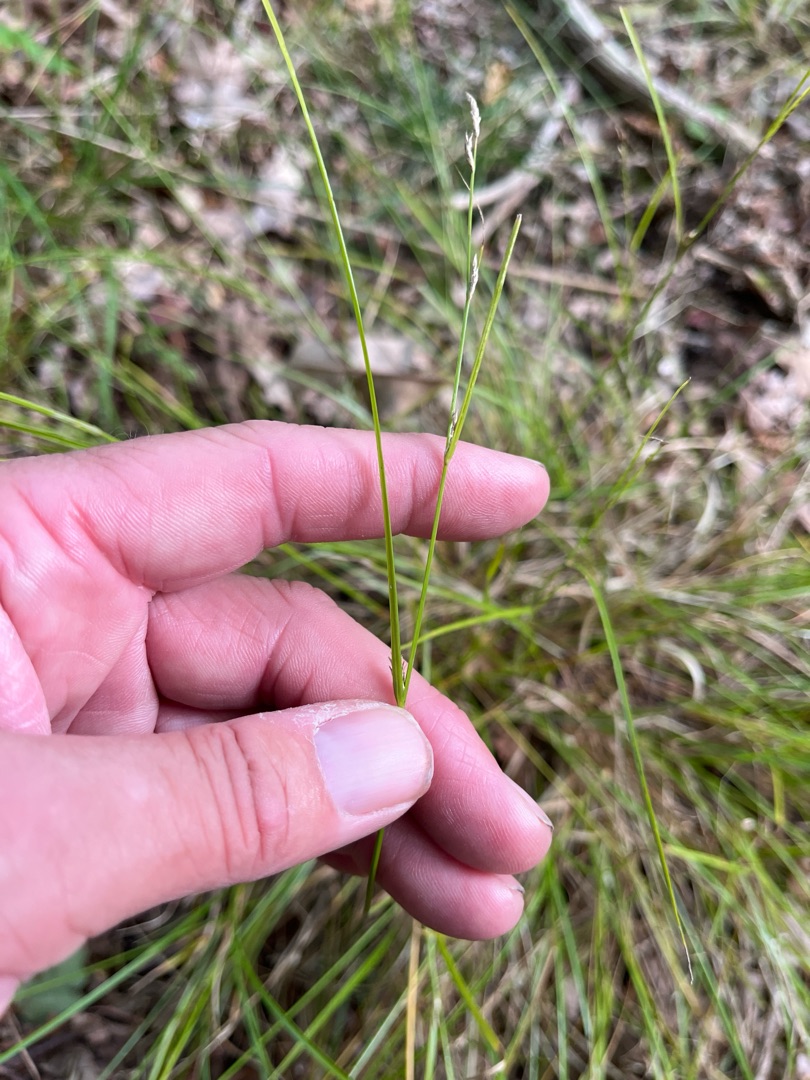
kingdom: Plantae
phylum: Tracheophyta
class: Liliopsida
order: Poales
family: Cyperaceae
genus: Carex
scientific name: Carex remota
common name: Akselblomstret star
